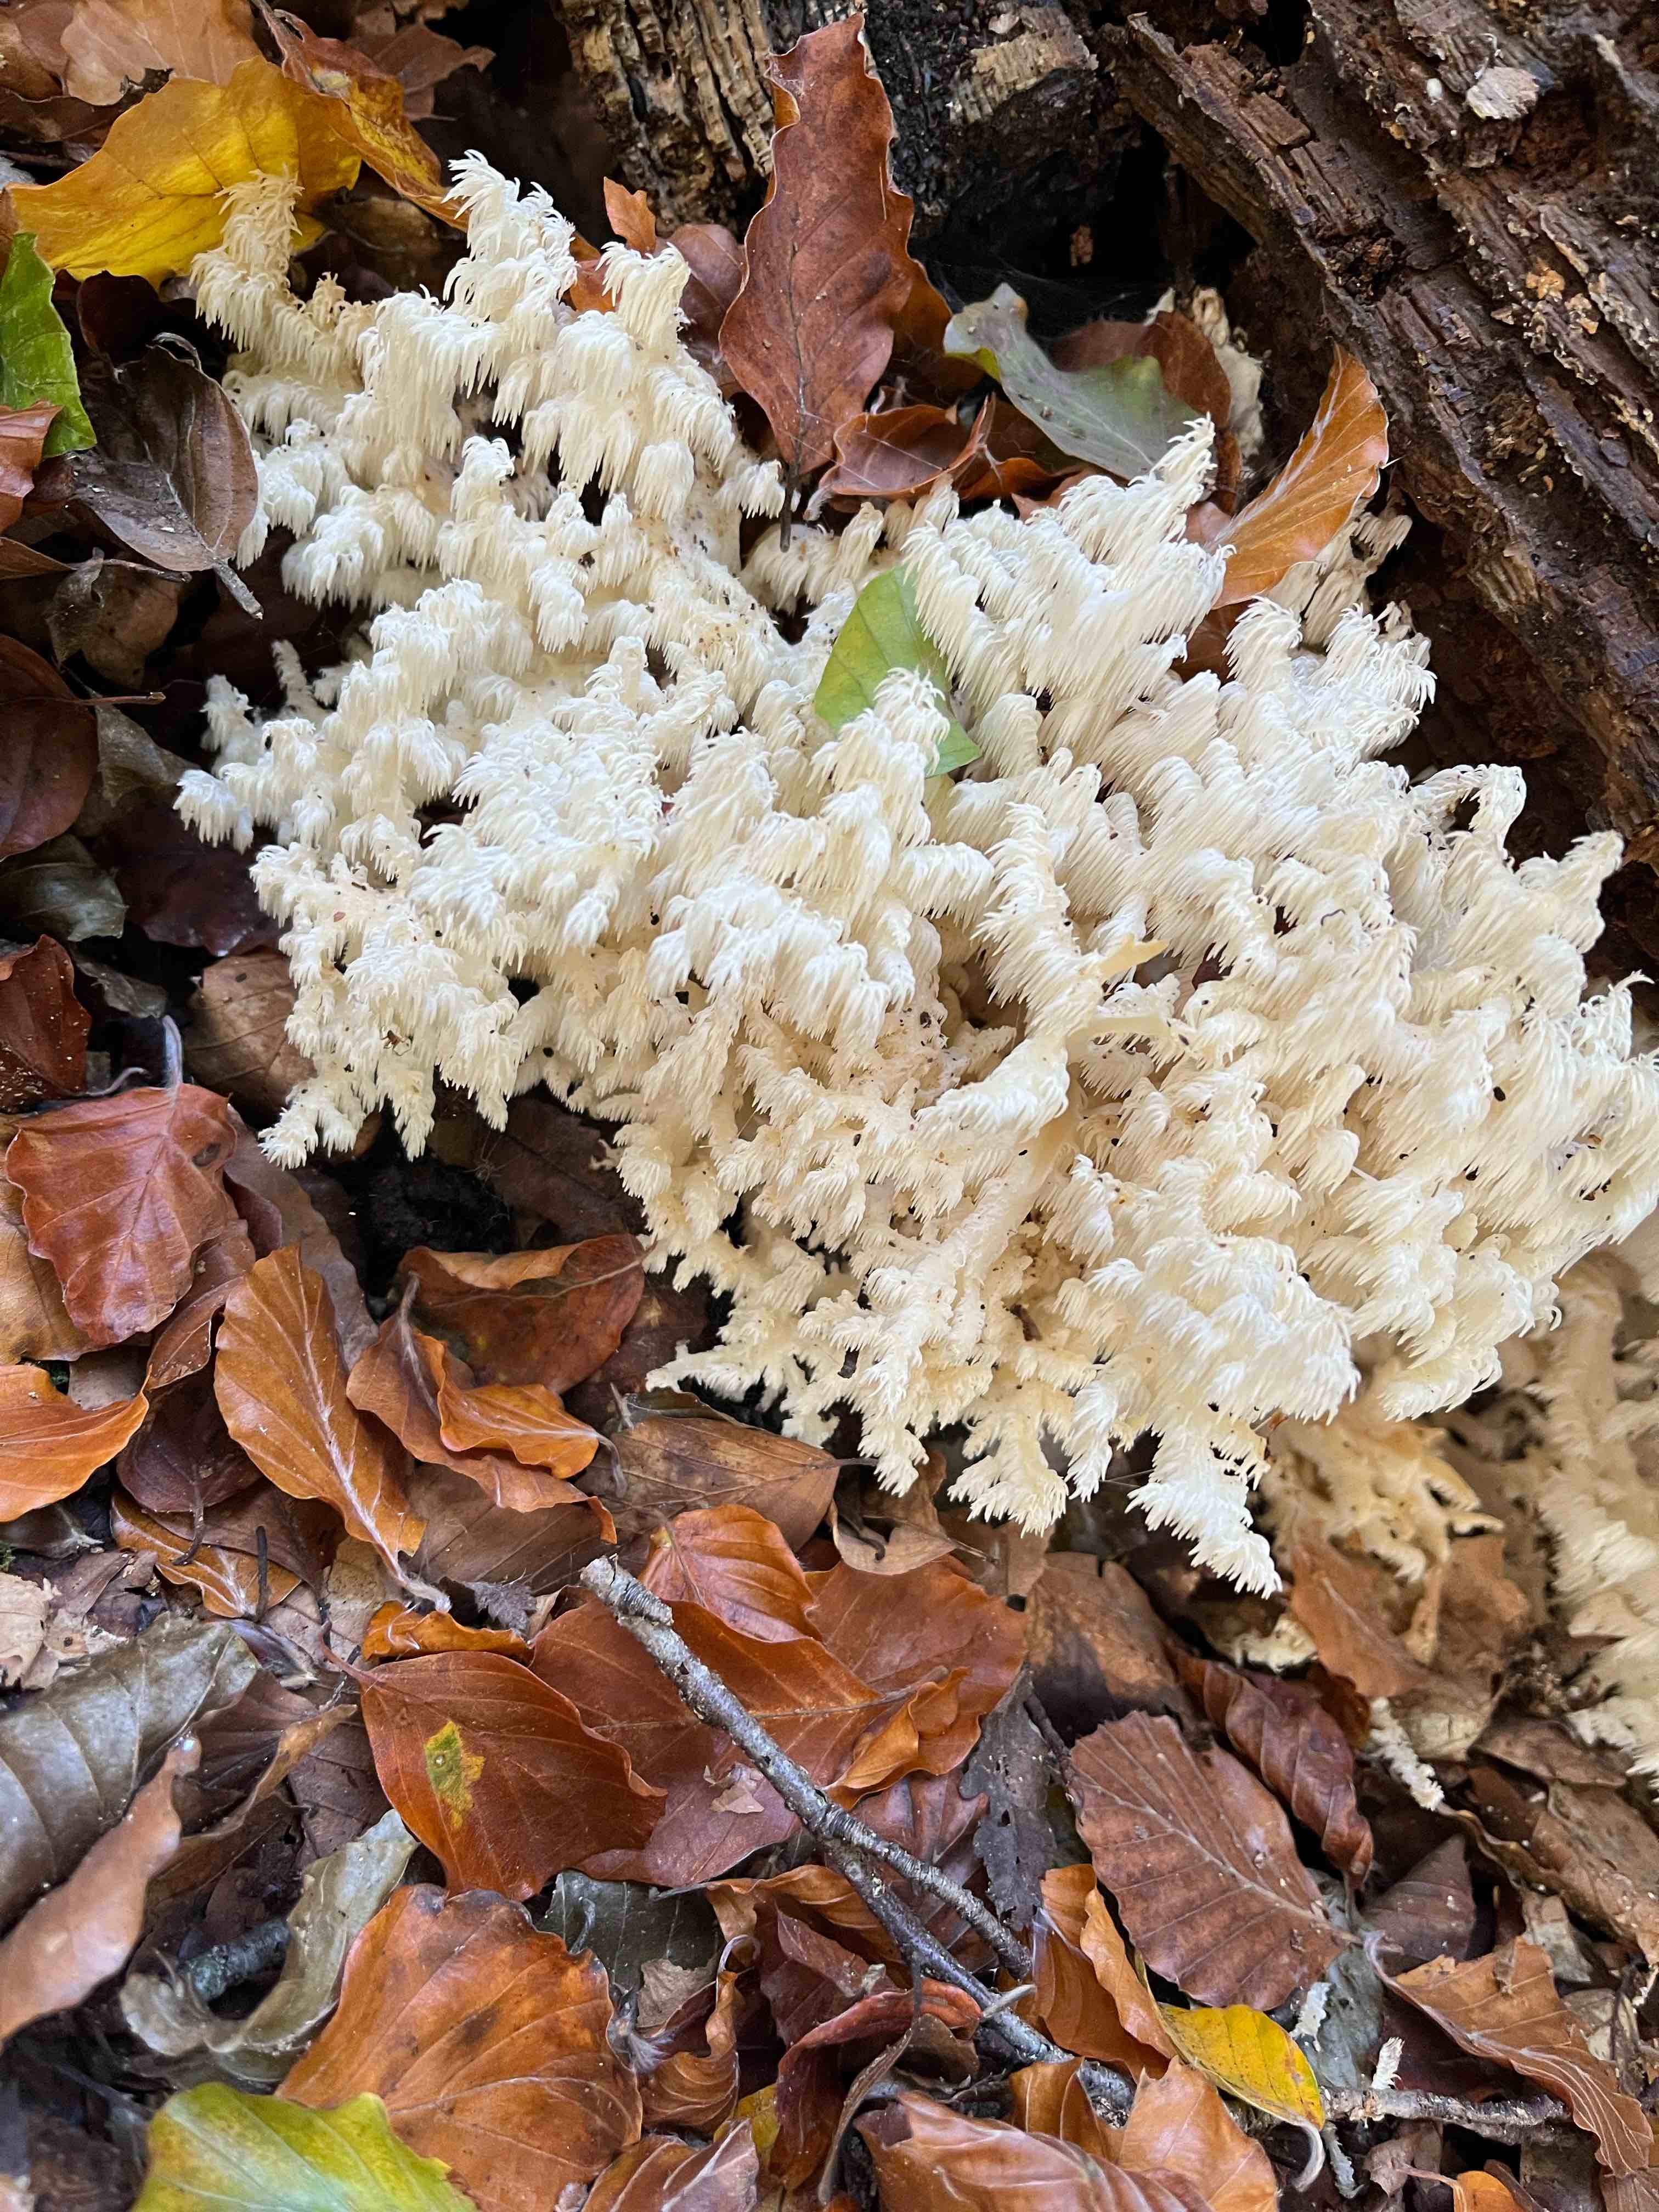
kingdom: Fungi
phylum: Basidiomycota
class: Agaricomycetes
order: Russulales
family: Hericiaceae
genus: Hericium
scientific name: Hericium coralloides
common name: koralpigsvamp
